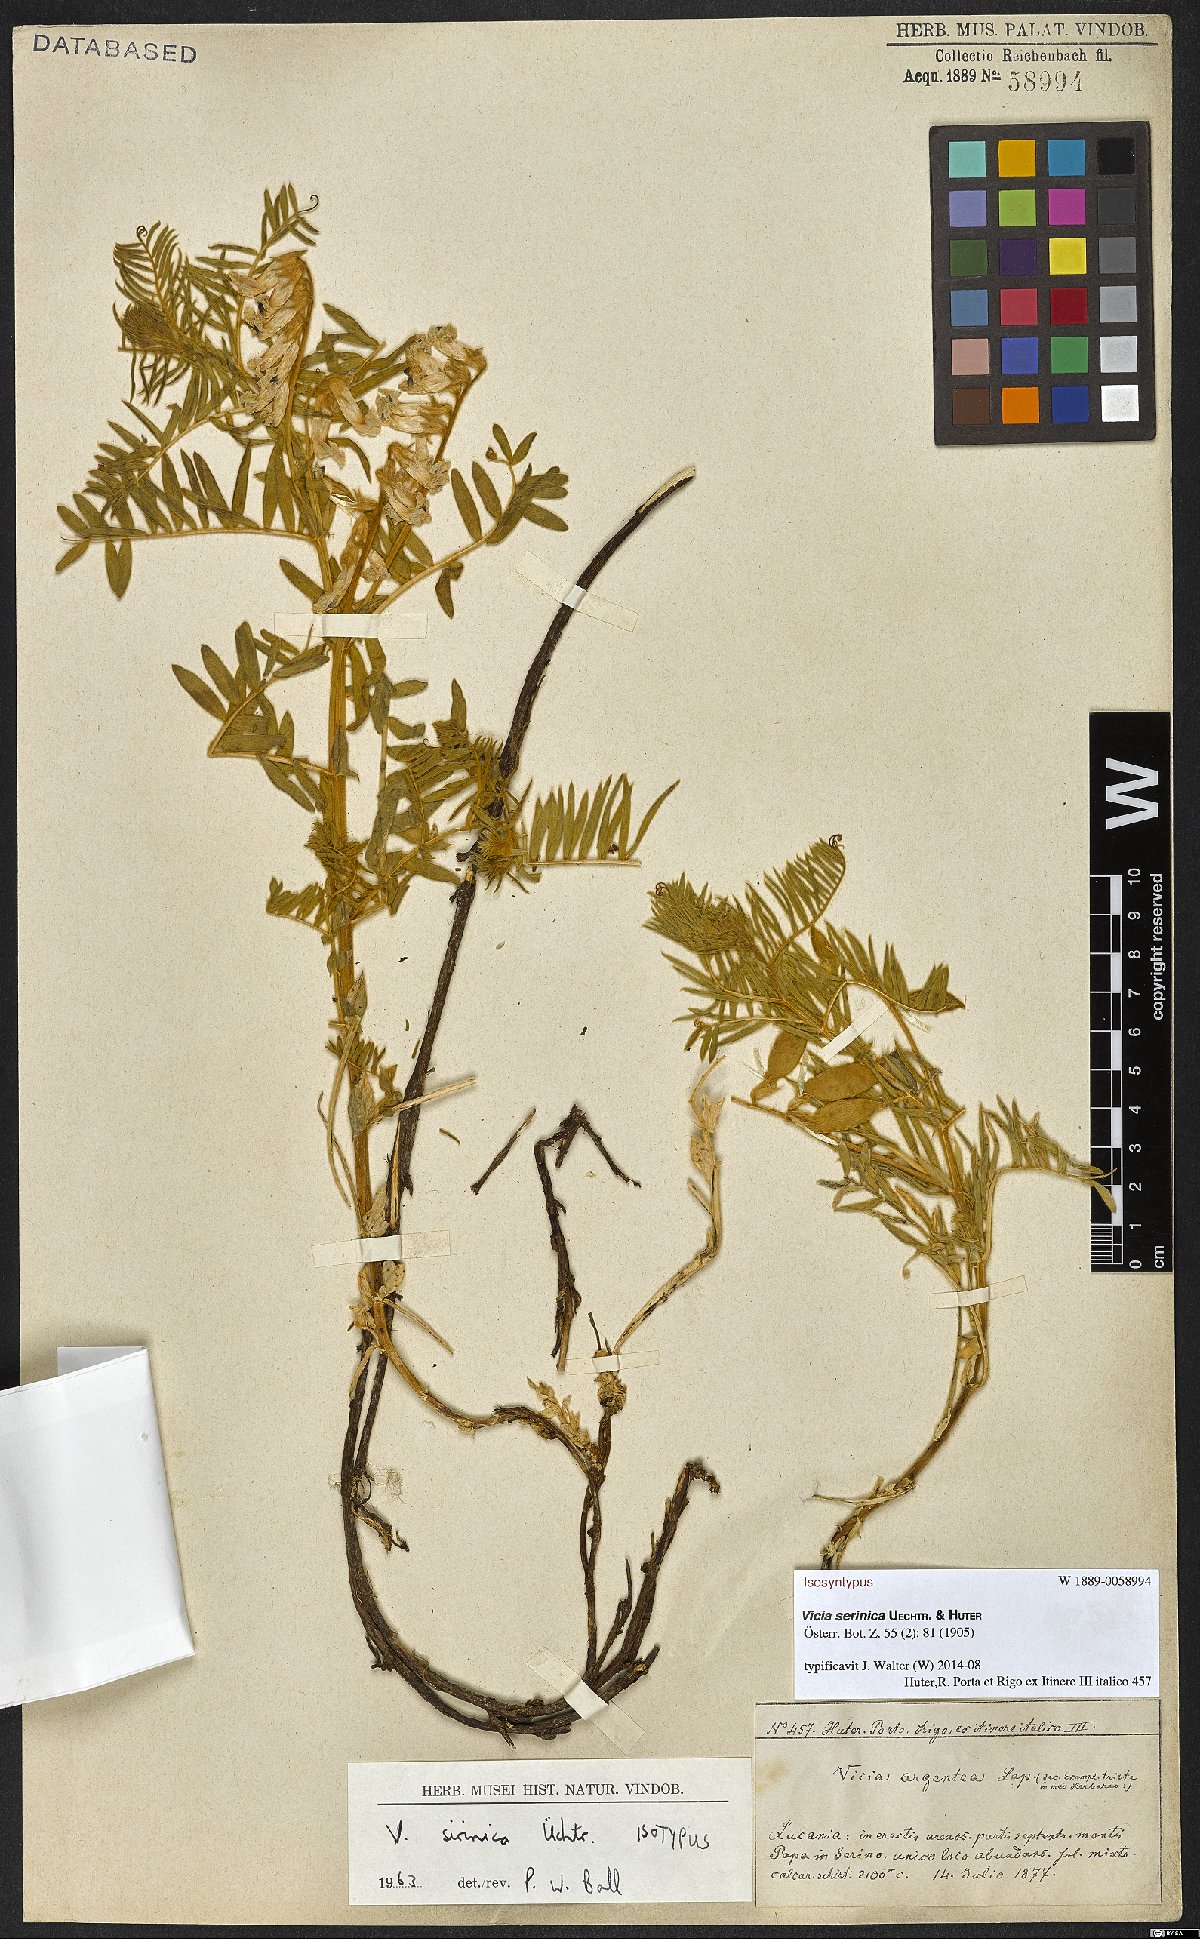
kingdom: Plantae
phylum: Tracheophyta
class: Magnoliopsida
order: Fabales
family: Fabaceae
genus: Vicia
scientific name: Vicia canescens
